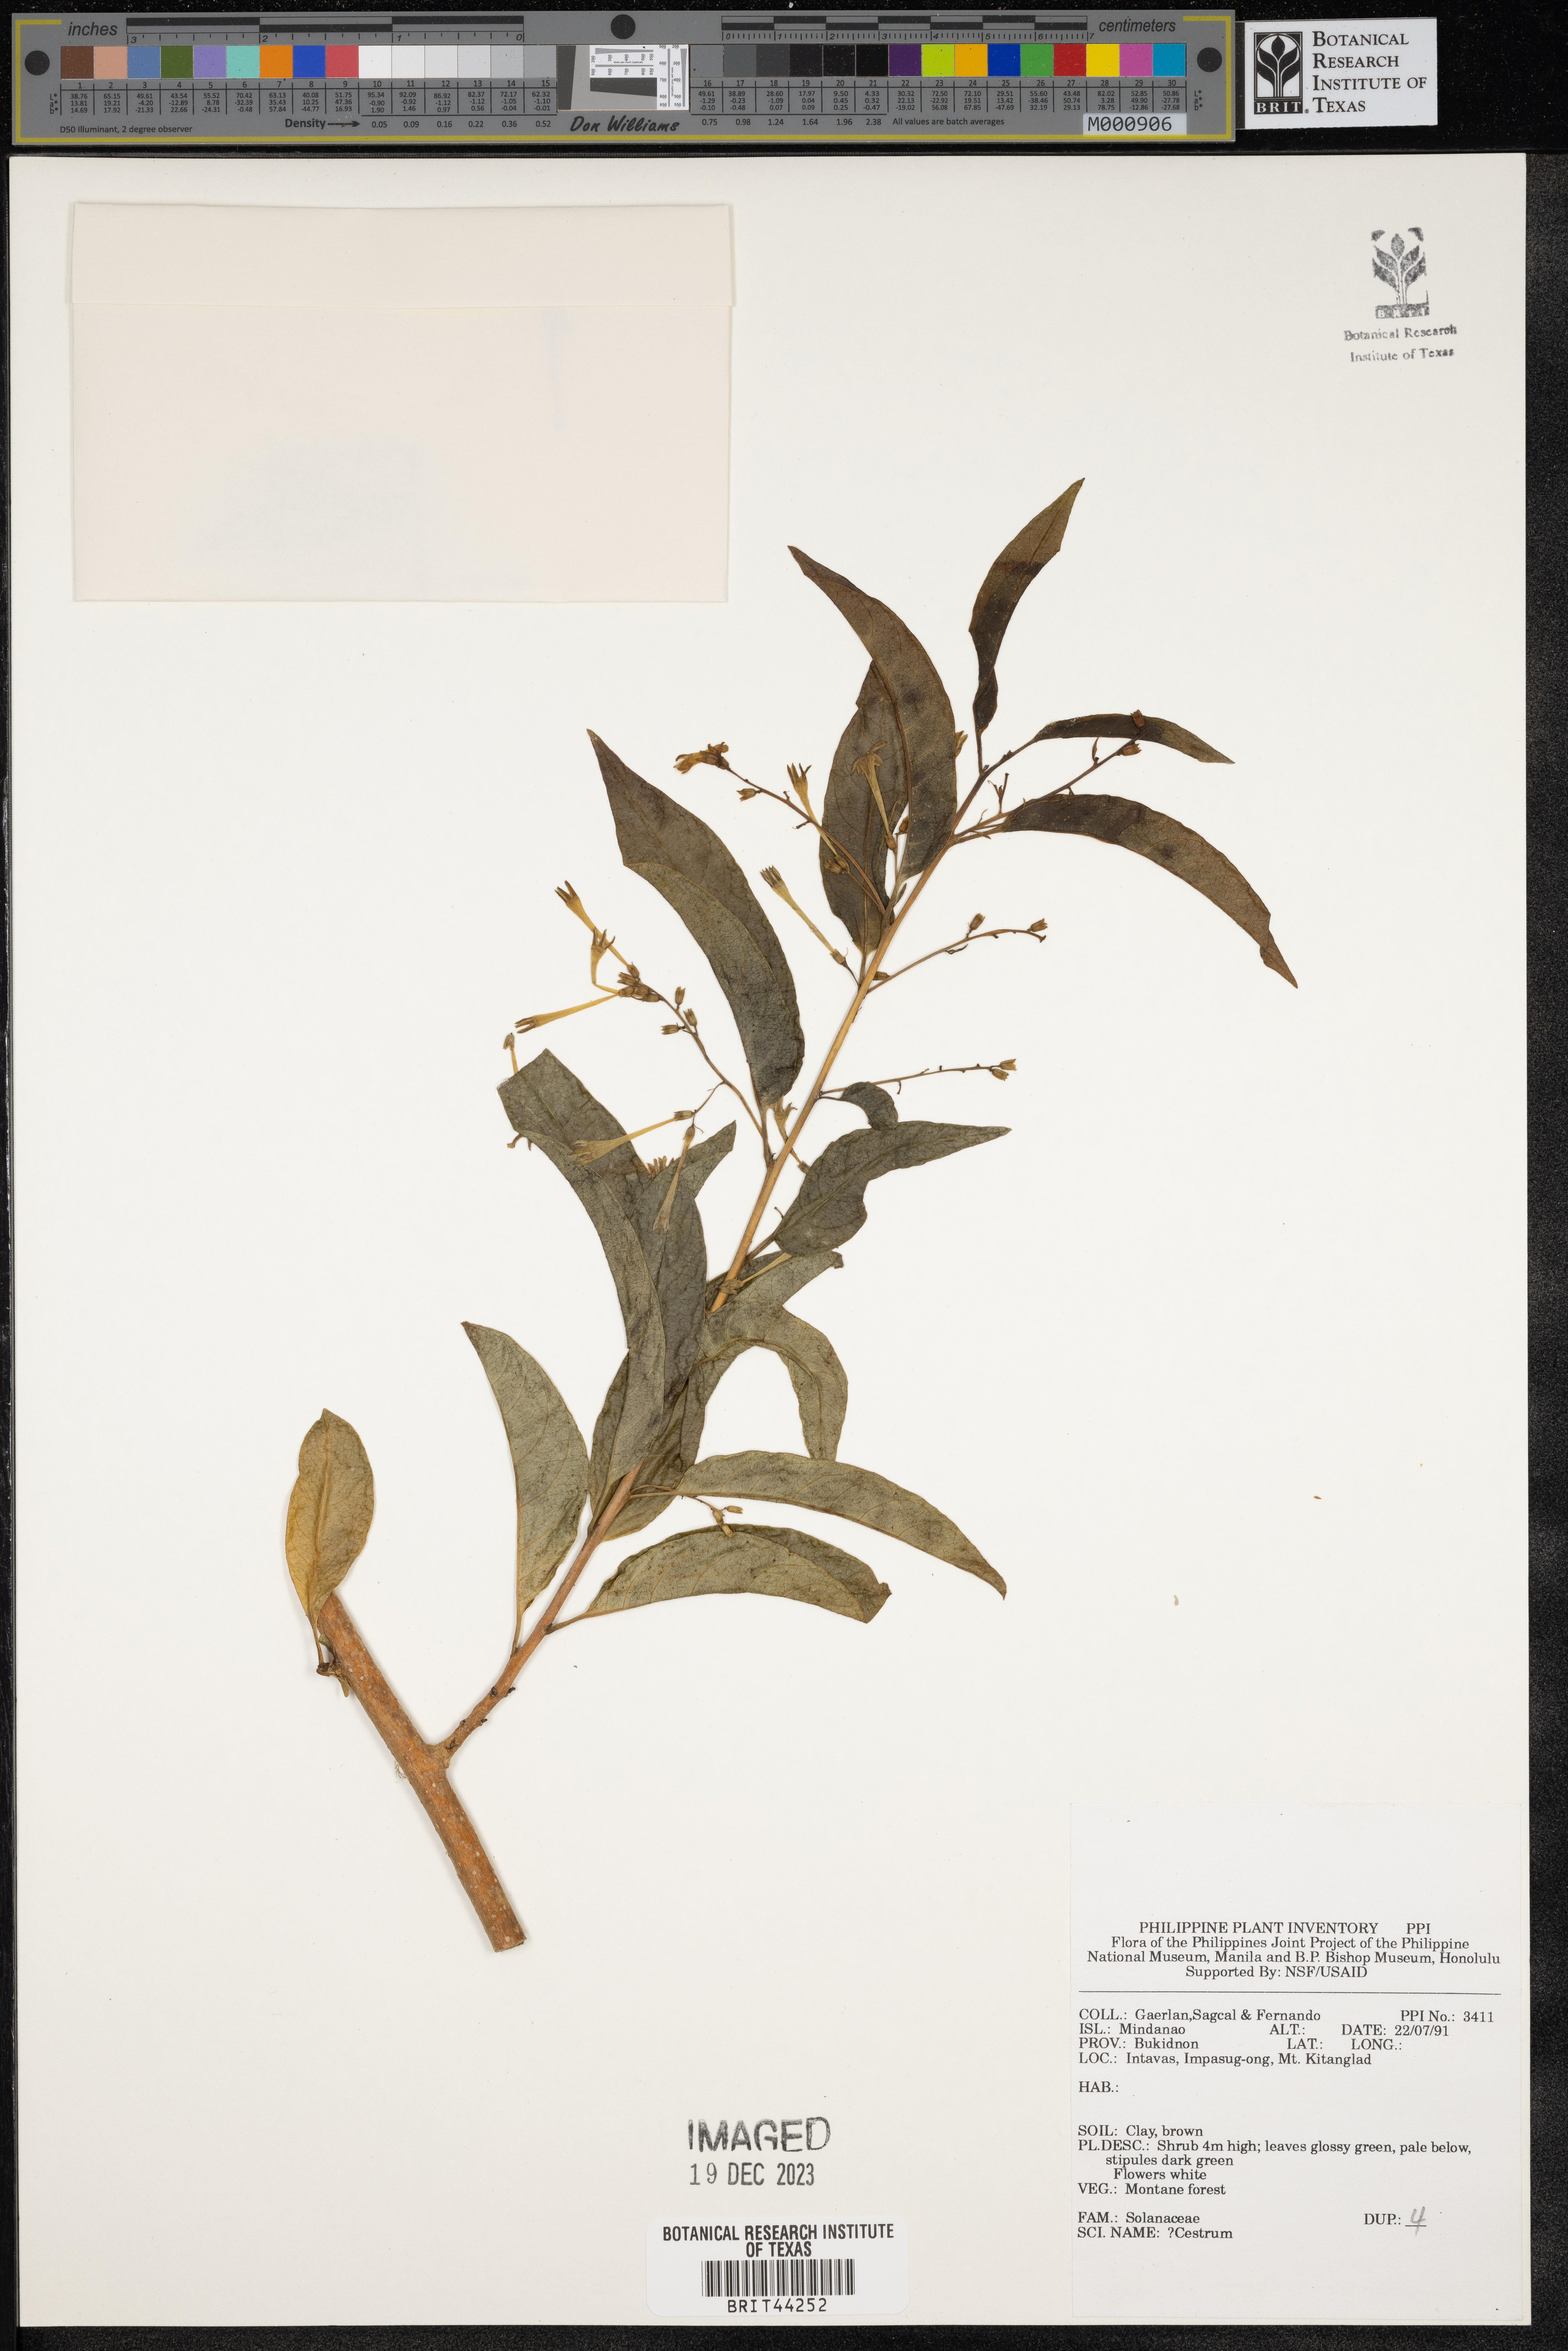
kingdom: Plantae
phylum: Tracheophyta
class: Magnoliopsida
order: Solanales
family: Solanaceae
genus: Cestrum
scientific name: Cestrum
